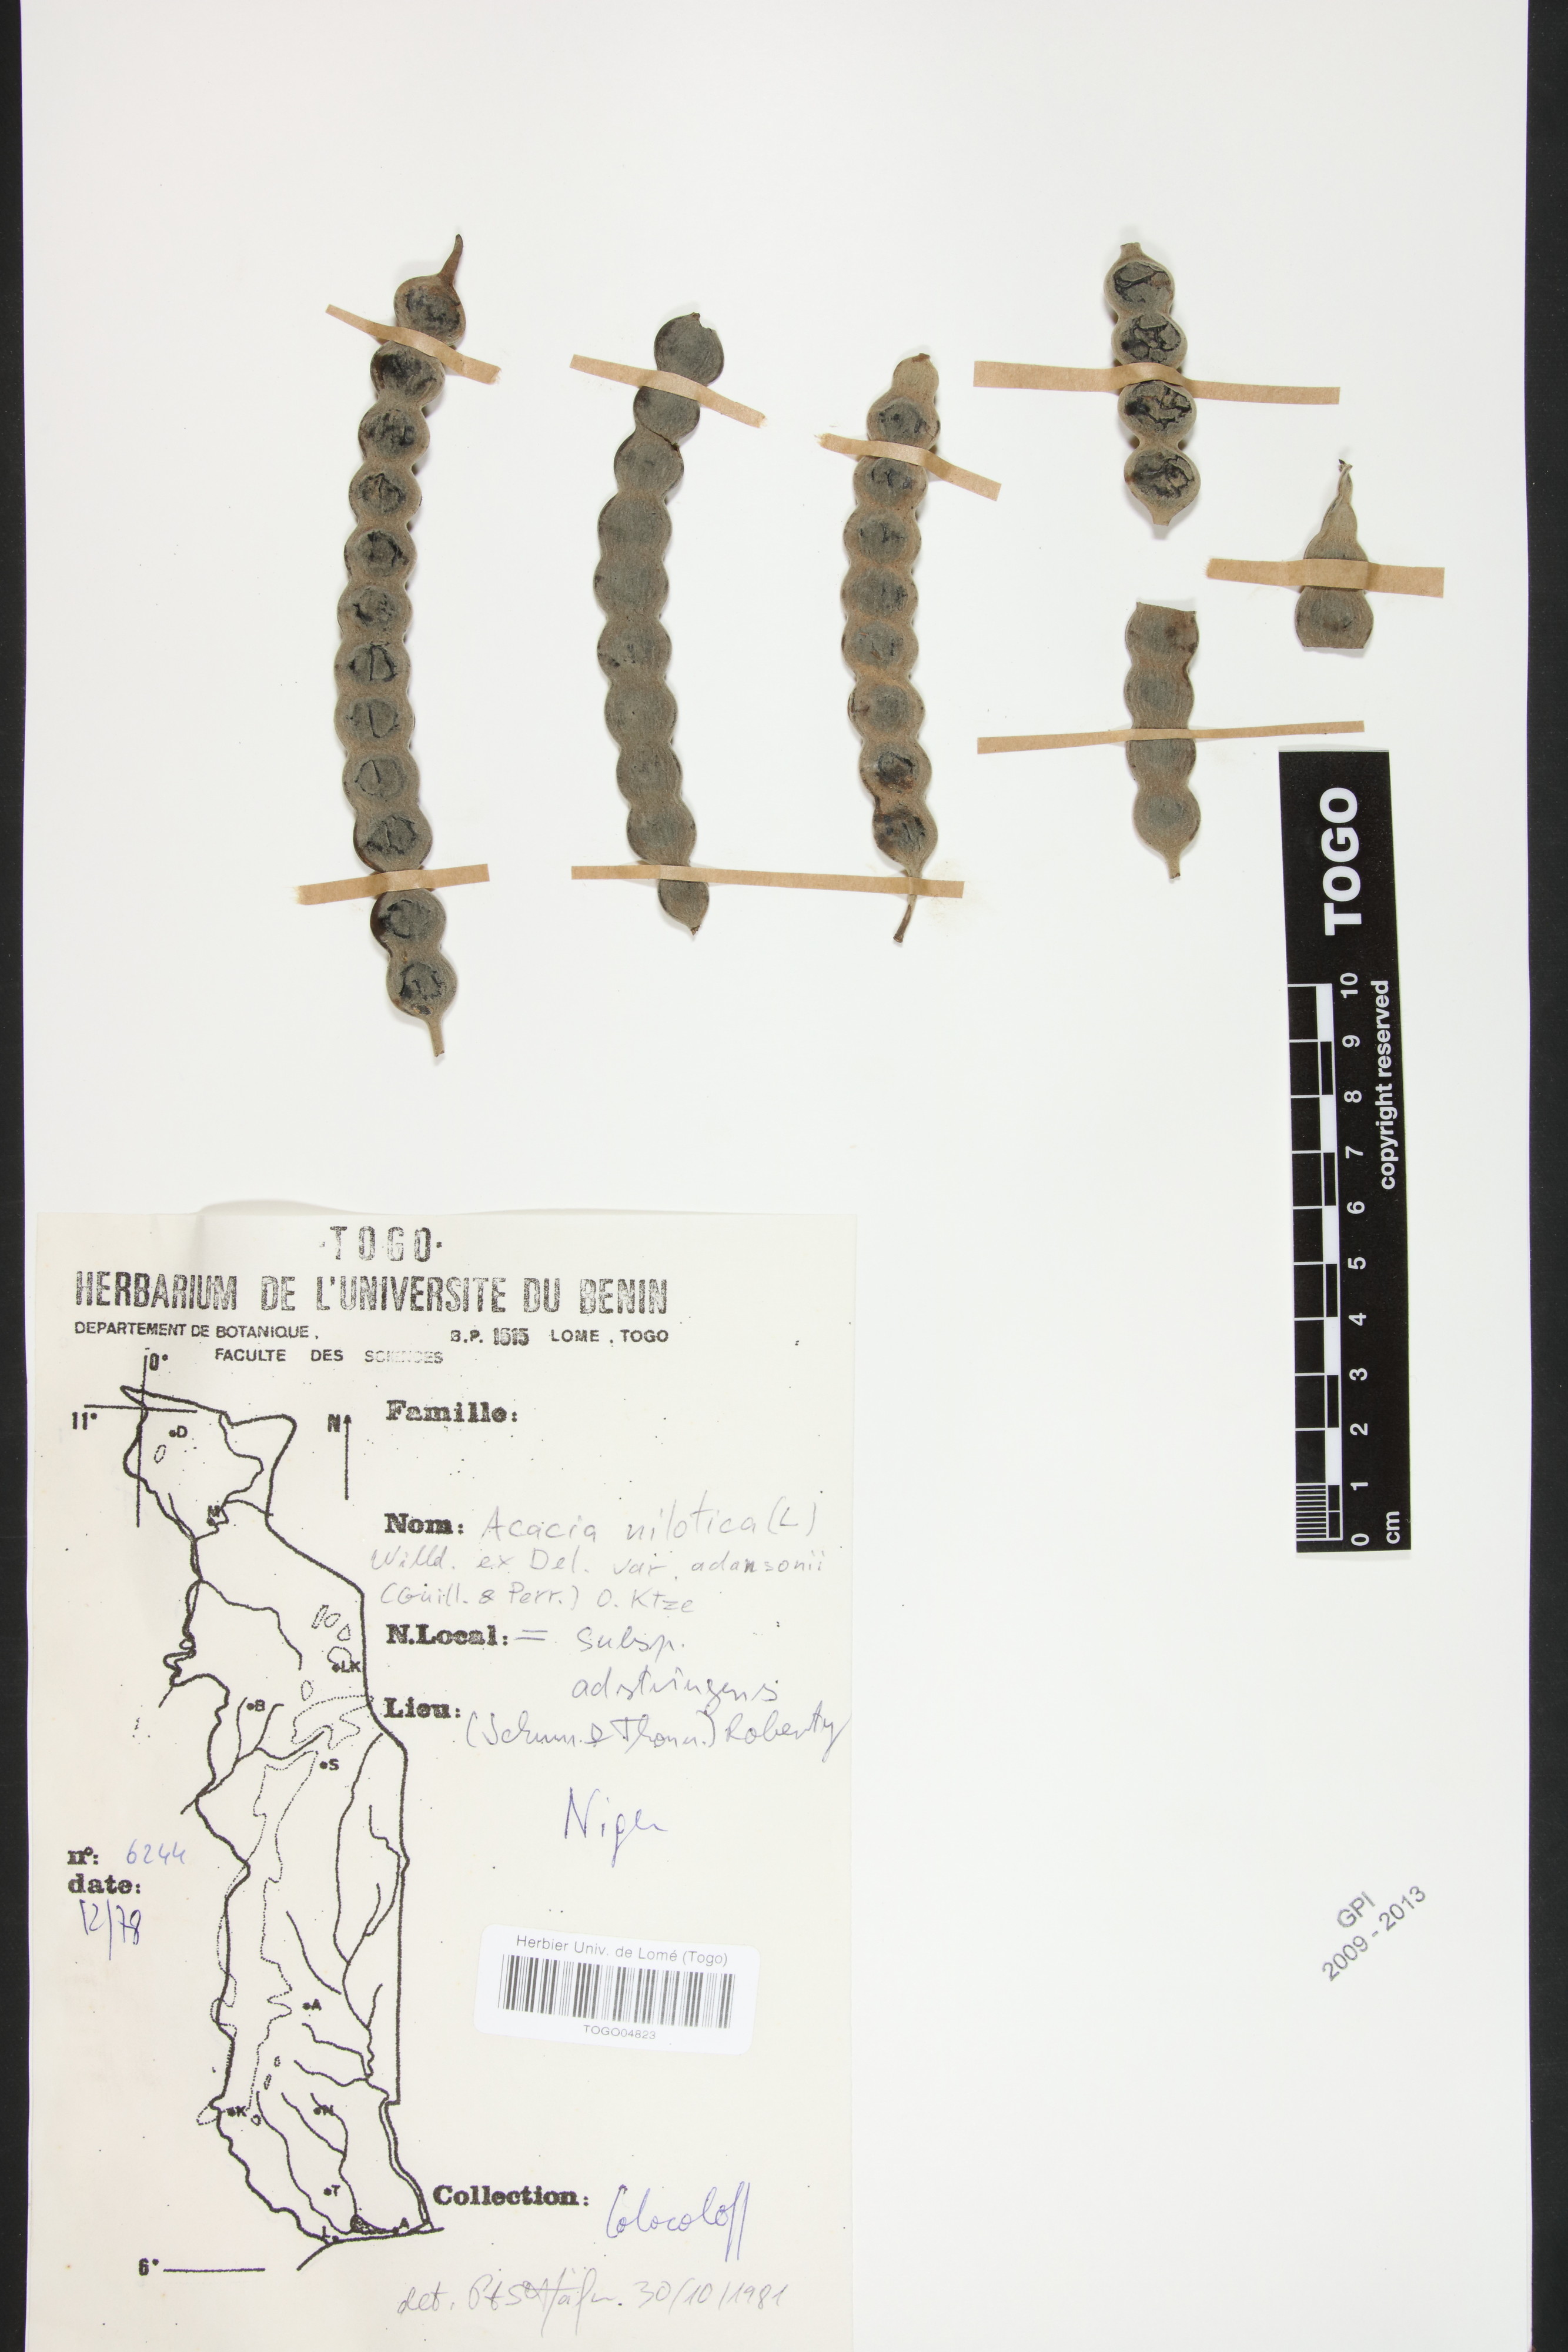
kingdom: Plantae
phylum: Tracheophyta
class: Magnoliopsida
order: Fabales
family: Fabaceae
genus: Vachellia
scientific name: Vachellia nilotica
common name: Arabic gumtree
